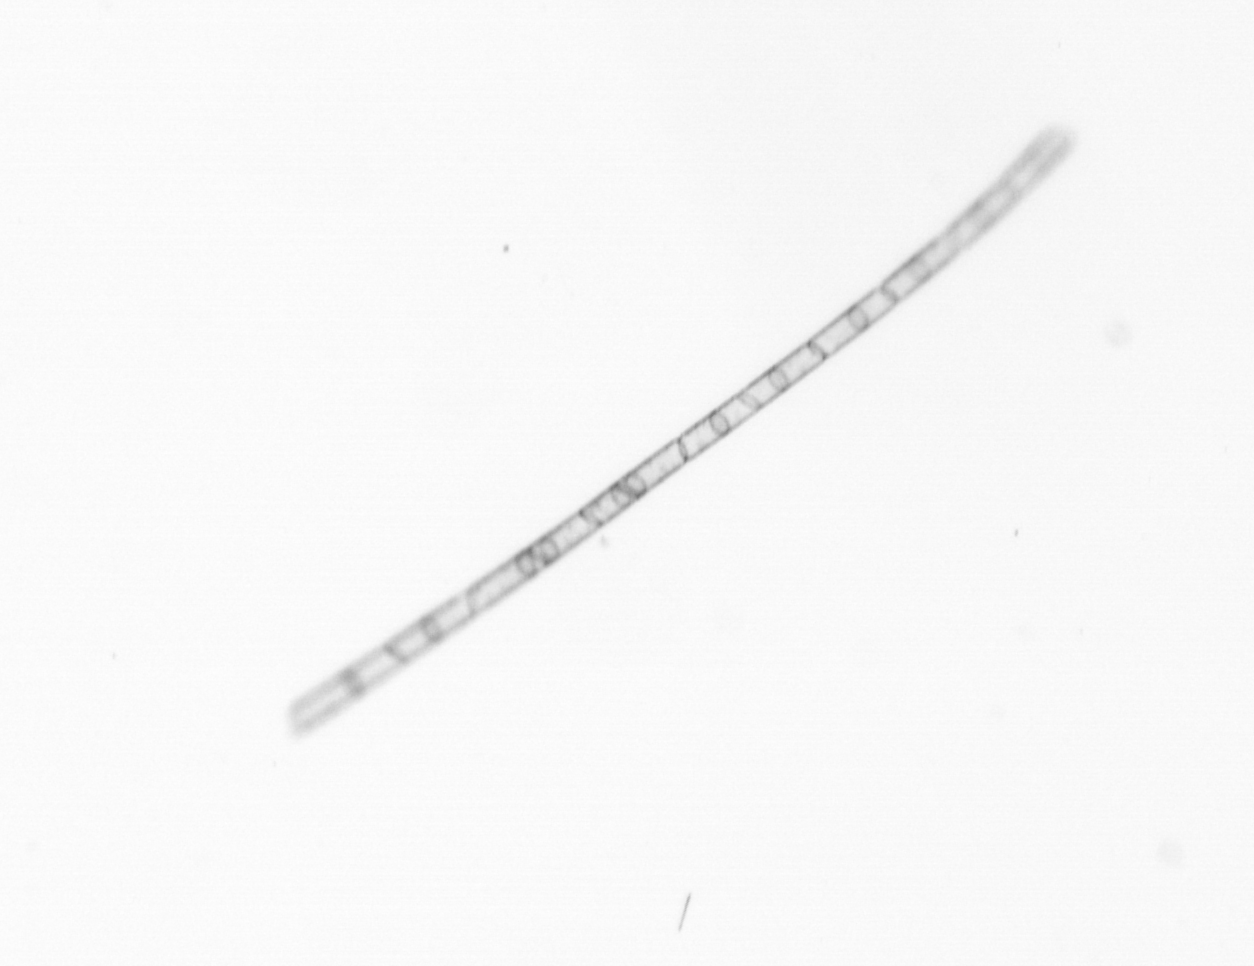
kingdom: Chromista
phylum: Ochrophyta
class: Bacillariophyceae
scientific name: Bacillariophyceae
